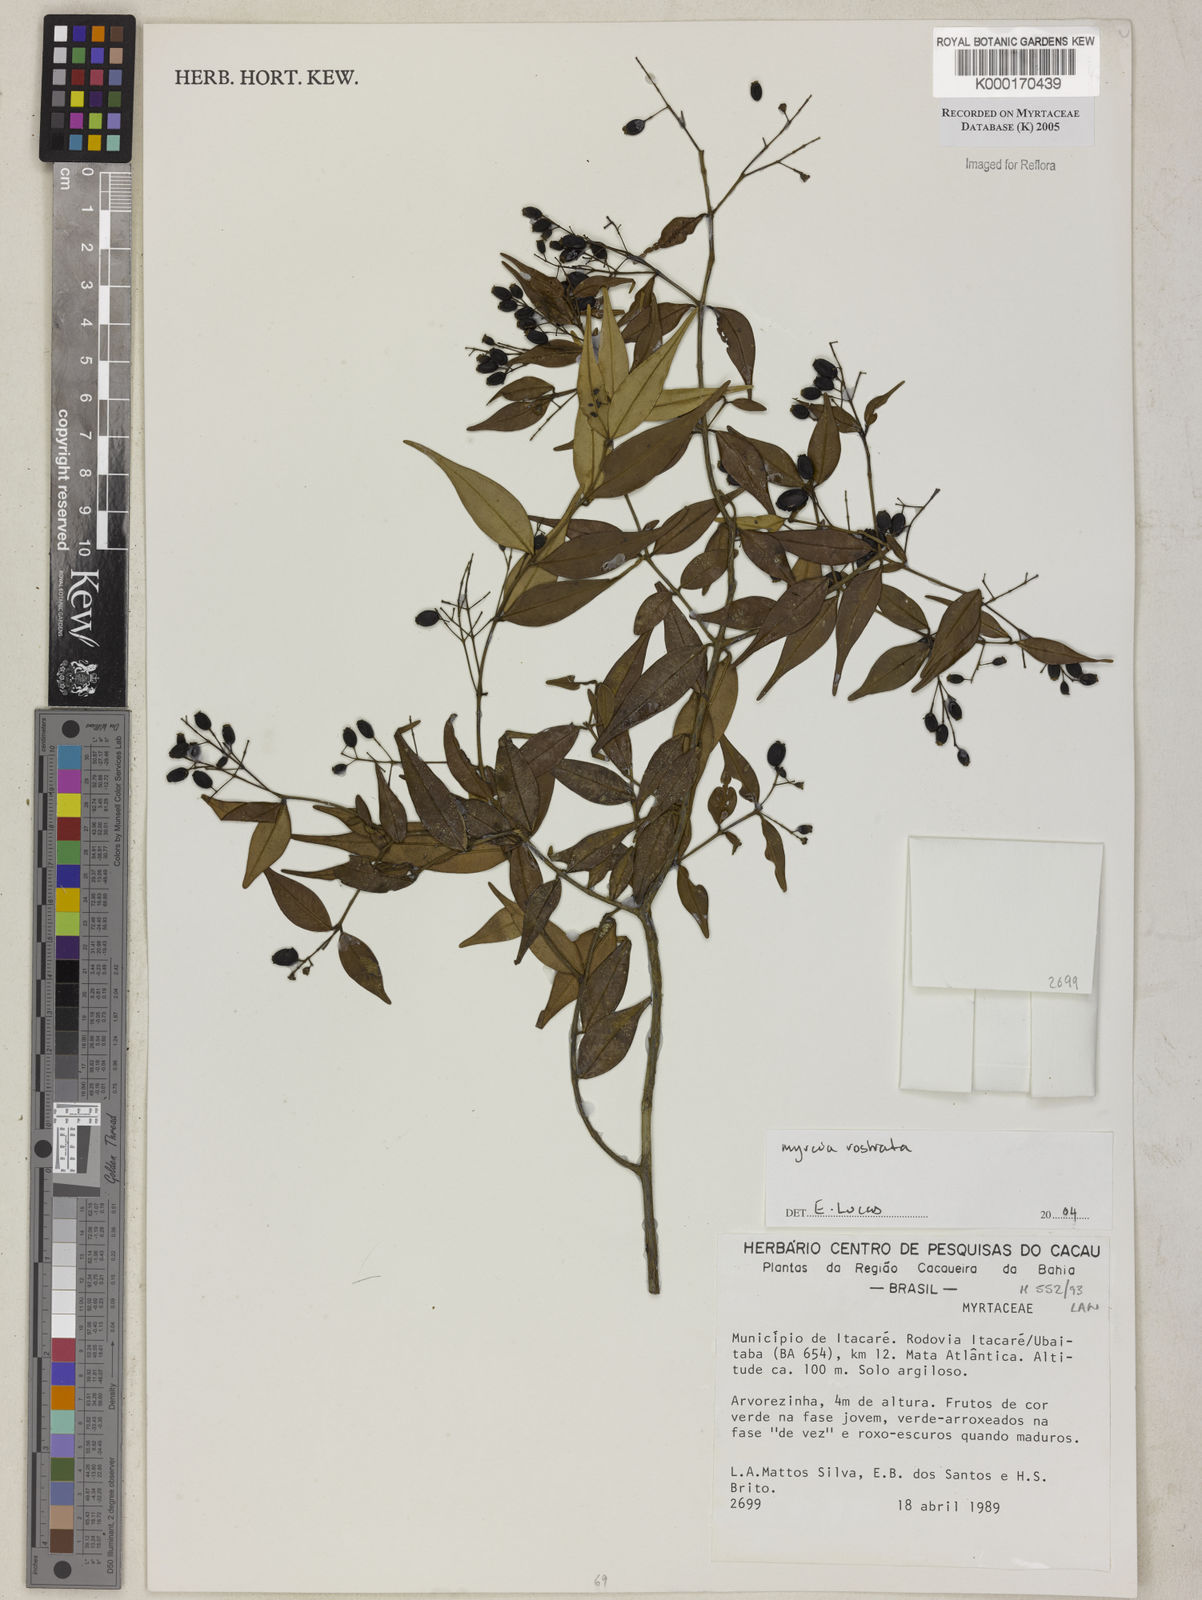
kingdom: Plantae
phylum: Tracheophyta
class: Magnoliopsida
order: Myrtales
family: Myrtaceae
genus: Myrcia
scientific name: Myrcia splendens
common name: Surinam cherry
